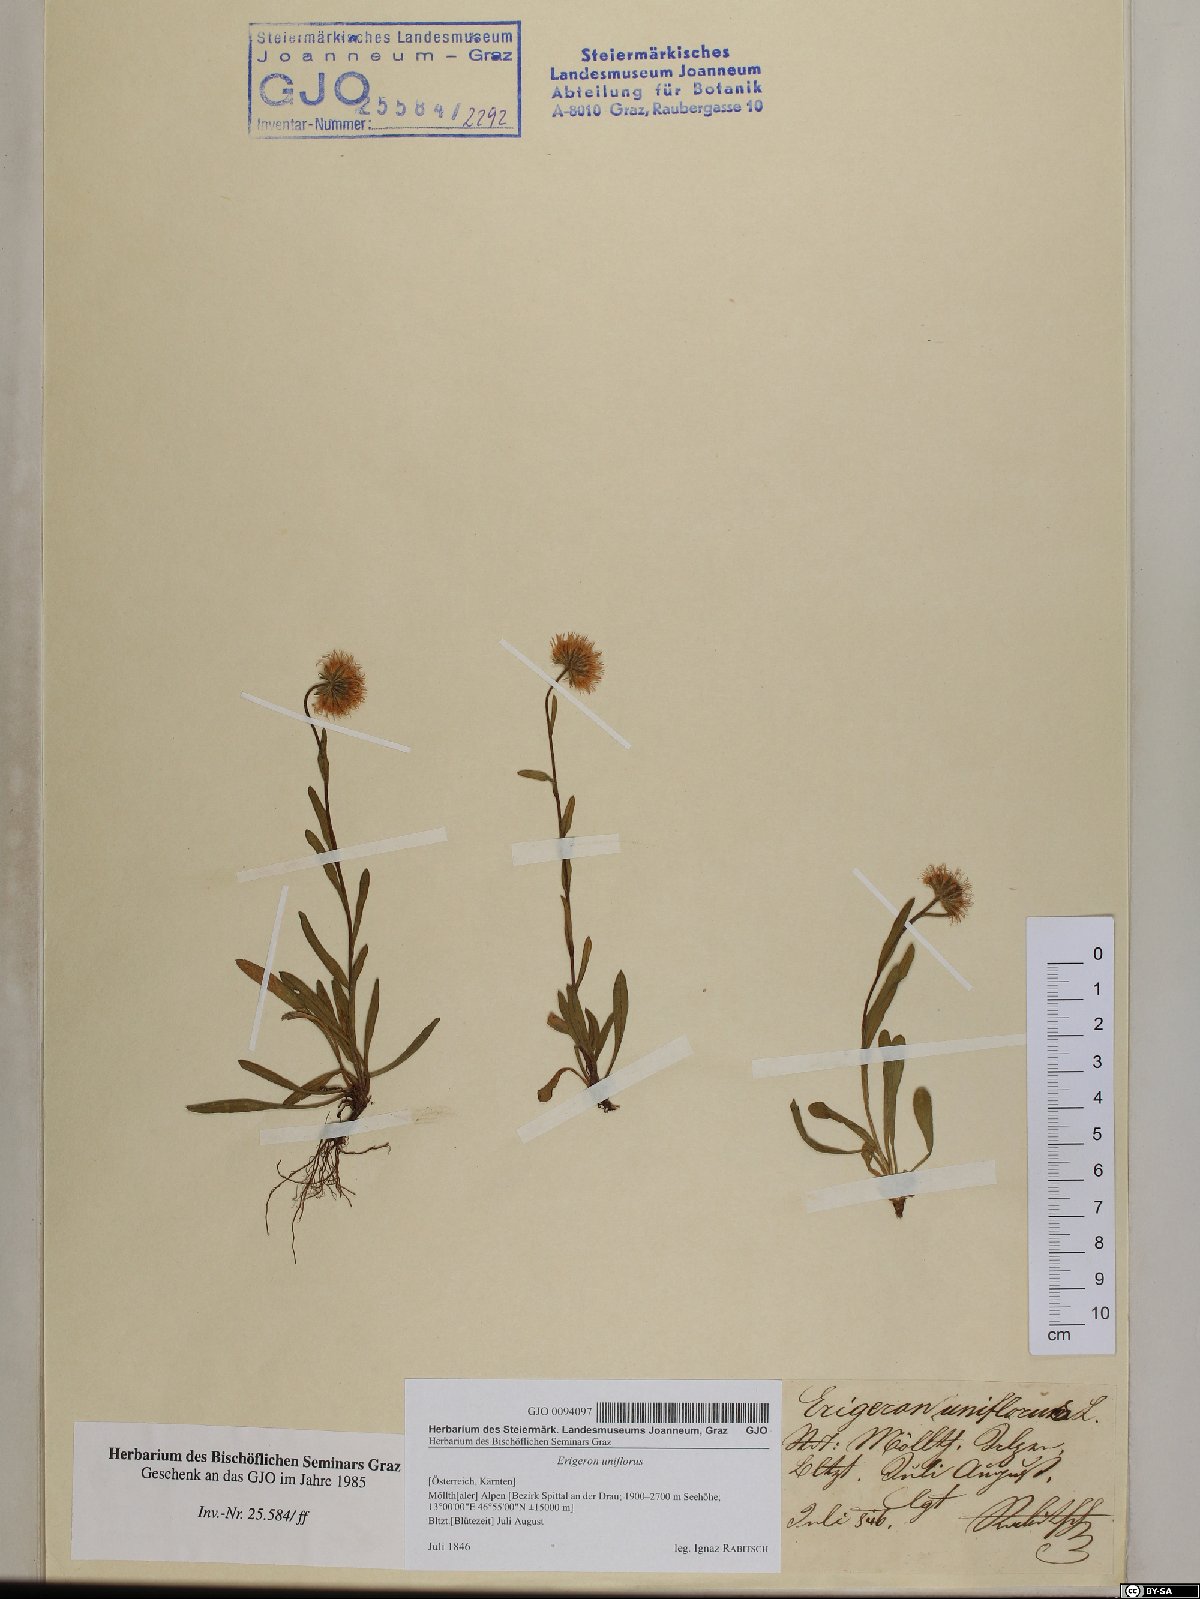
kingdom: Plantae
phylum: Tracheophyta
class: Magnoliopsida
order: Asterales
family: Asteraceae
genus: Erigeron
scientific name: Erigeron uniflorus
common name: Northern daisy
